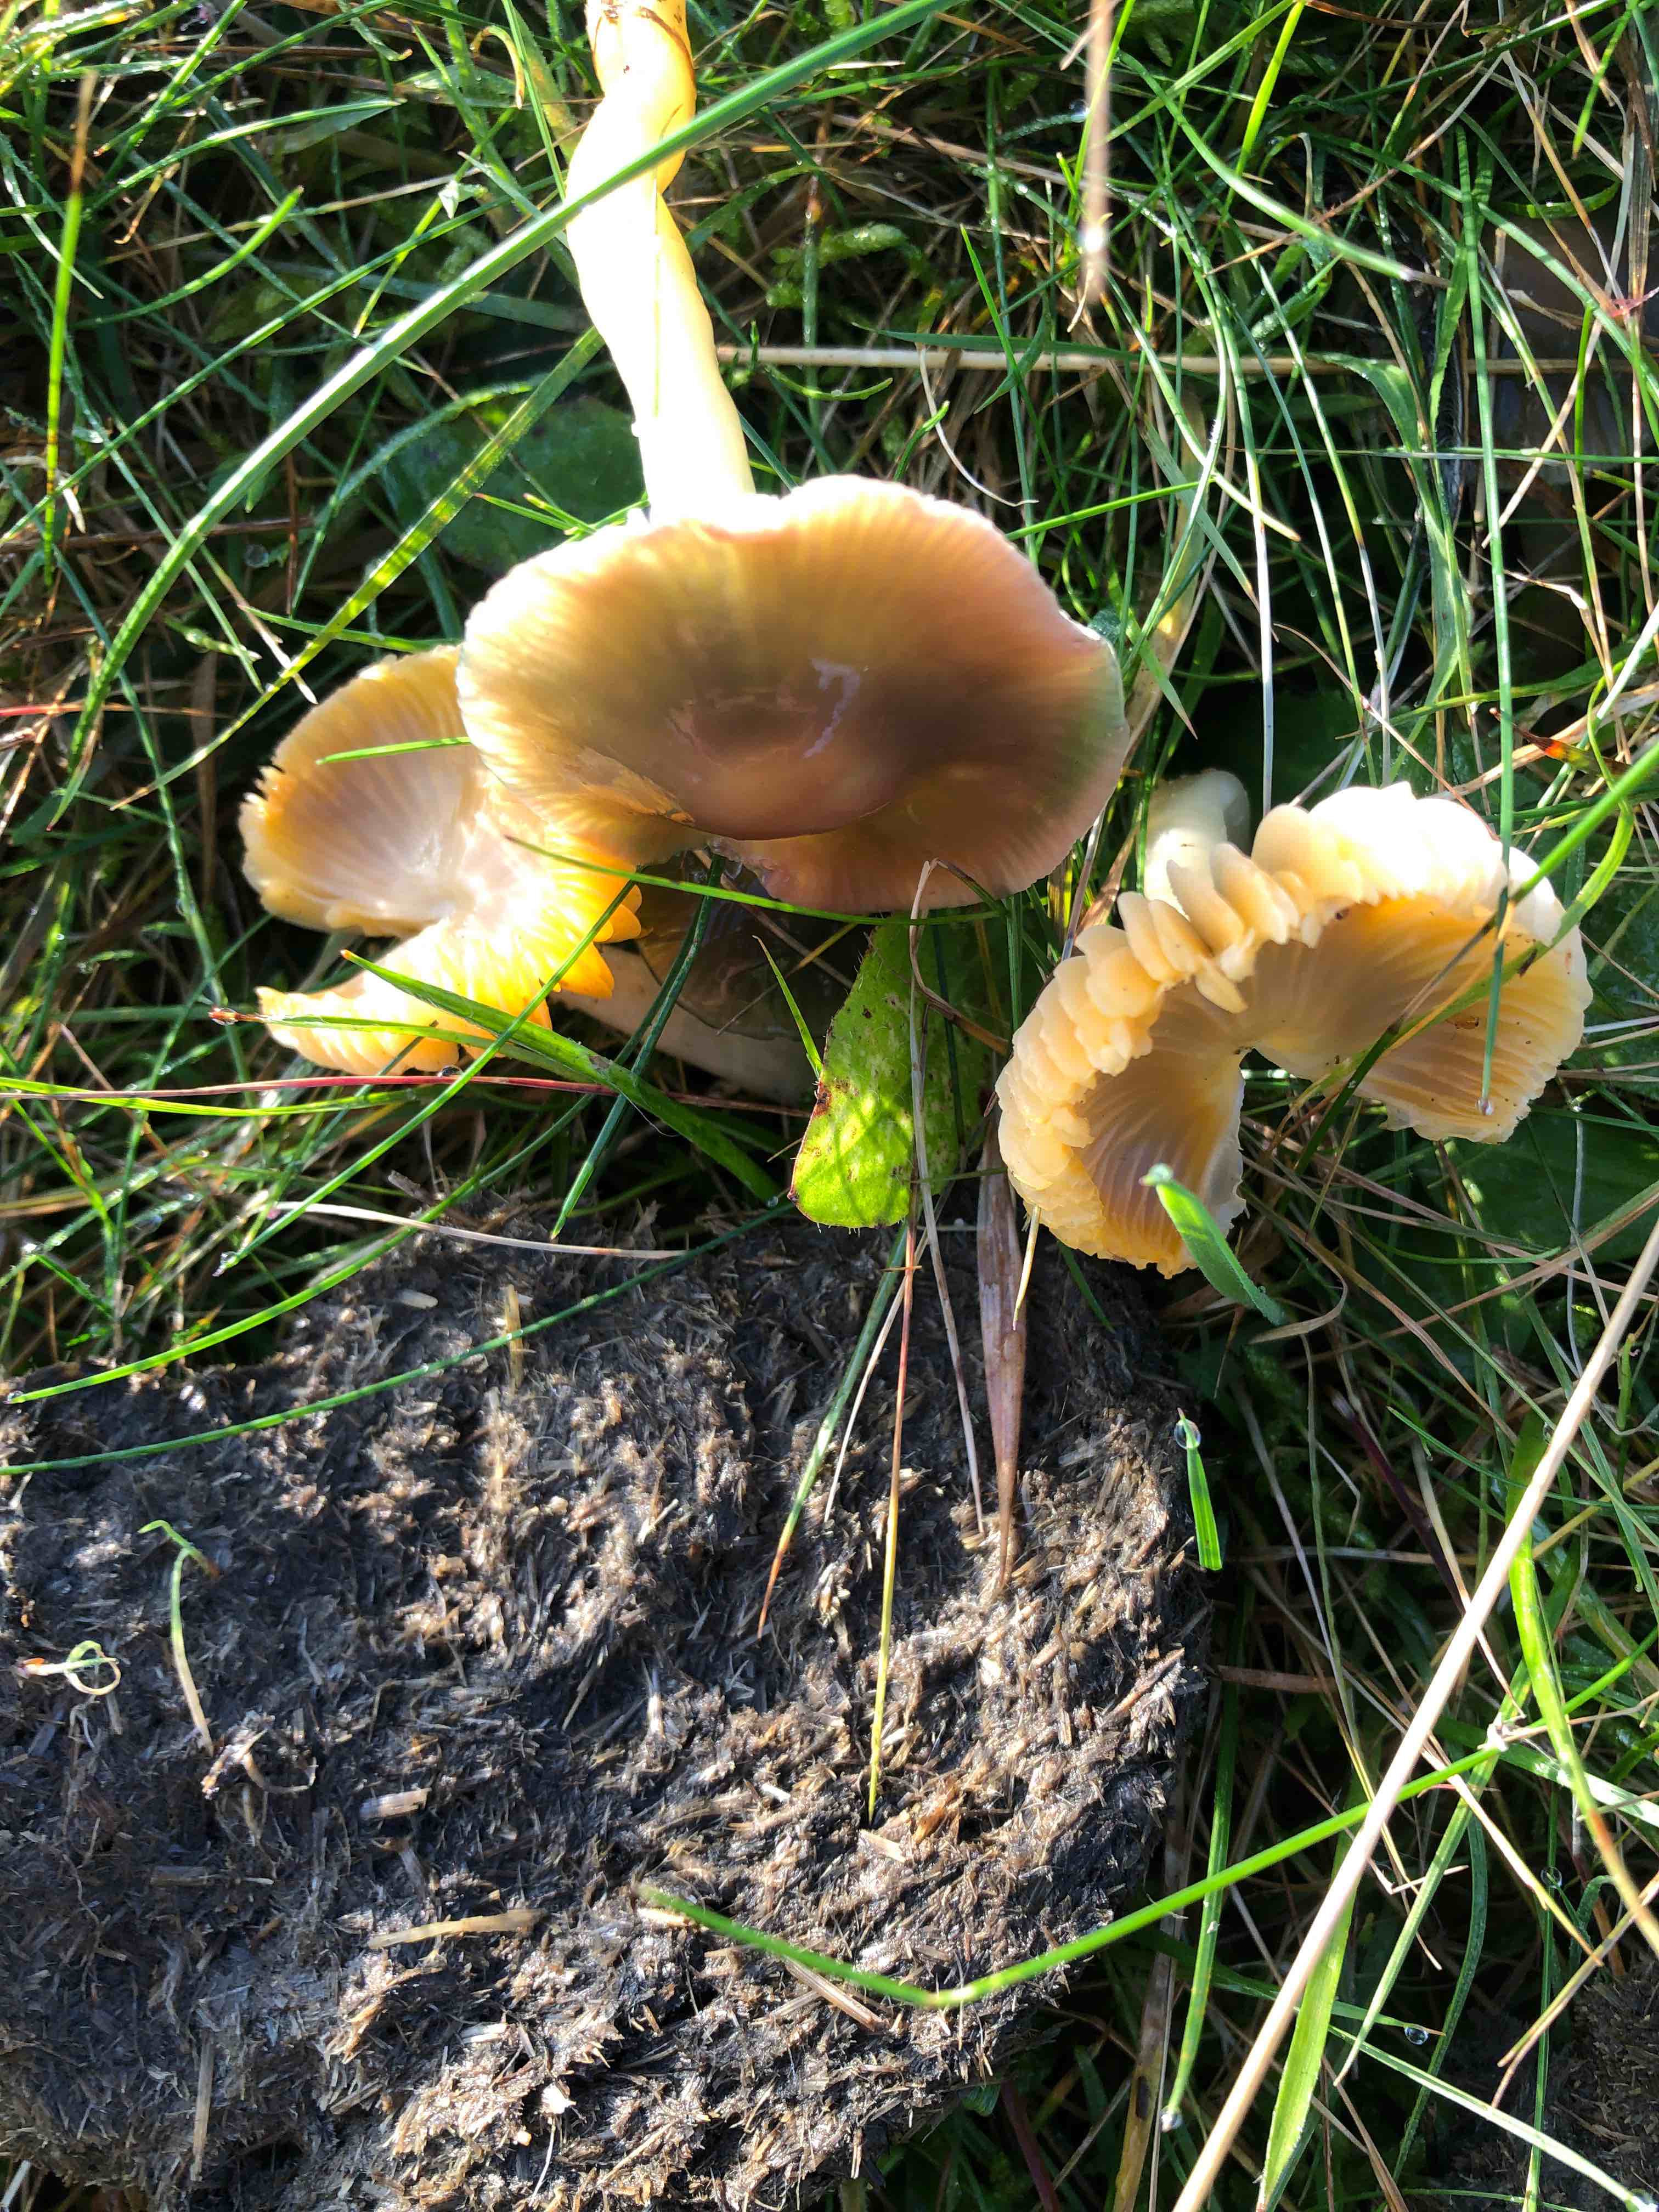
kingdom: Fungi
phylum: Basidiomycota
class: Agaricomycetes
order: Agaricales
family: Hygrophoraceae
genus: Gliophorus
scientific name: Gliophorus psittacinus
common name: papegøje-vokshat
